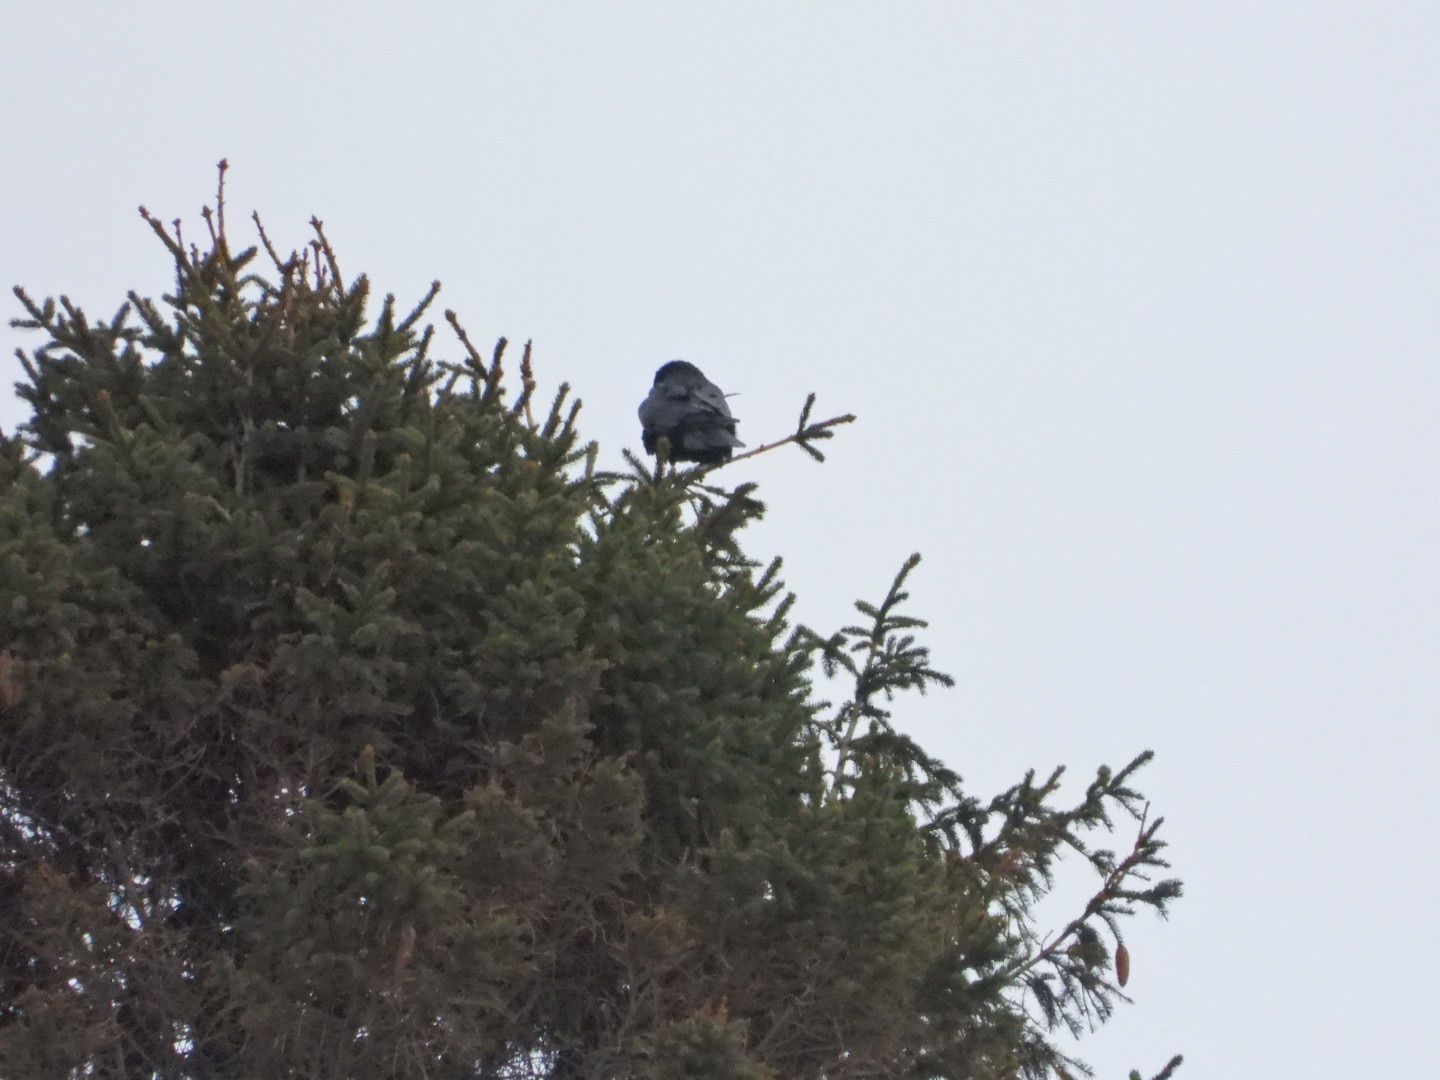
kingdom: Animalia
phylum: Chordata
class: Aves
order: Passeriformes
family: Corvidae
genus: Corvus
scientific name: Corvus corax
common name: Ravn
